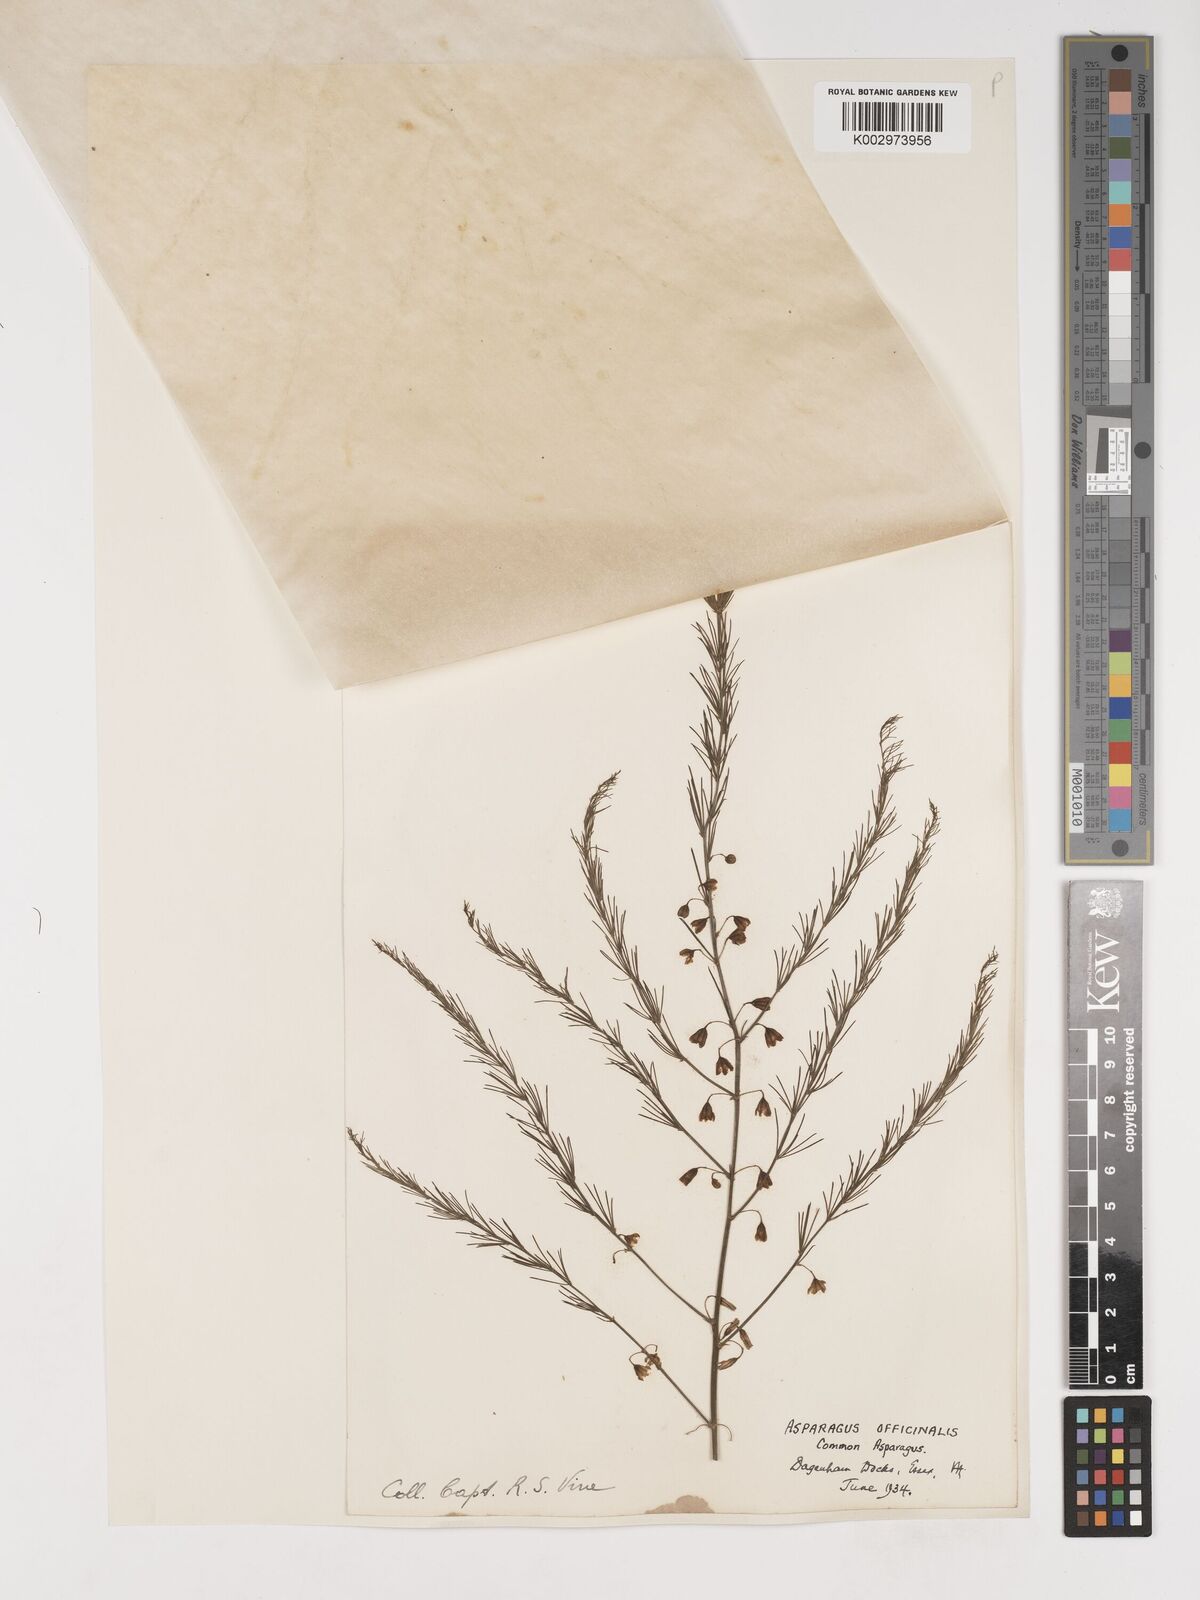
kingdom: Plantae
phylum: Tracheophyta
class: Liliopsida
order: Asparagales
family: Asparagaceae
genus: Asparagus
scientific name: Asparagus officinalis
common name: Garden asparagus
